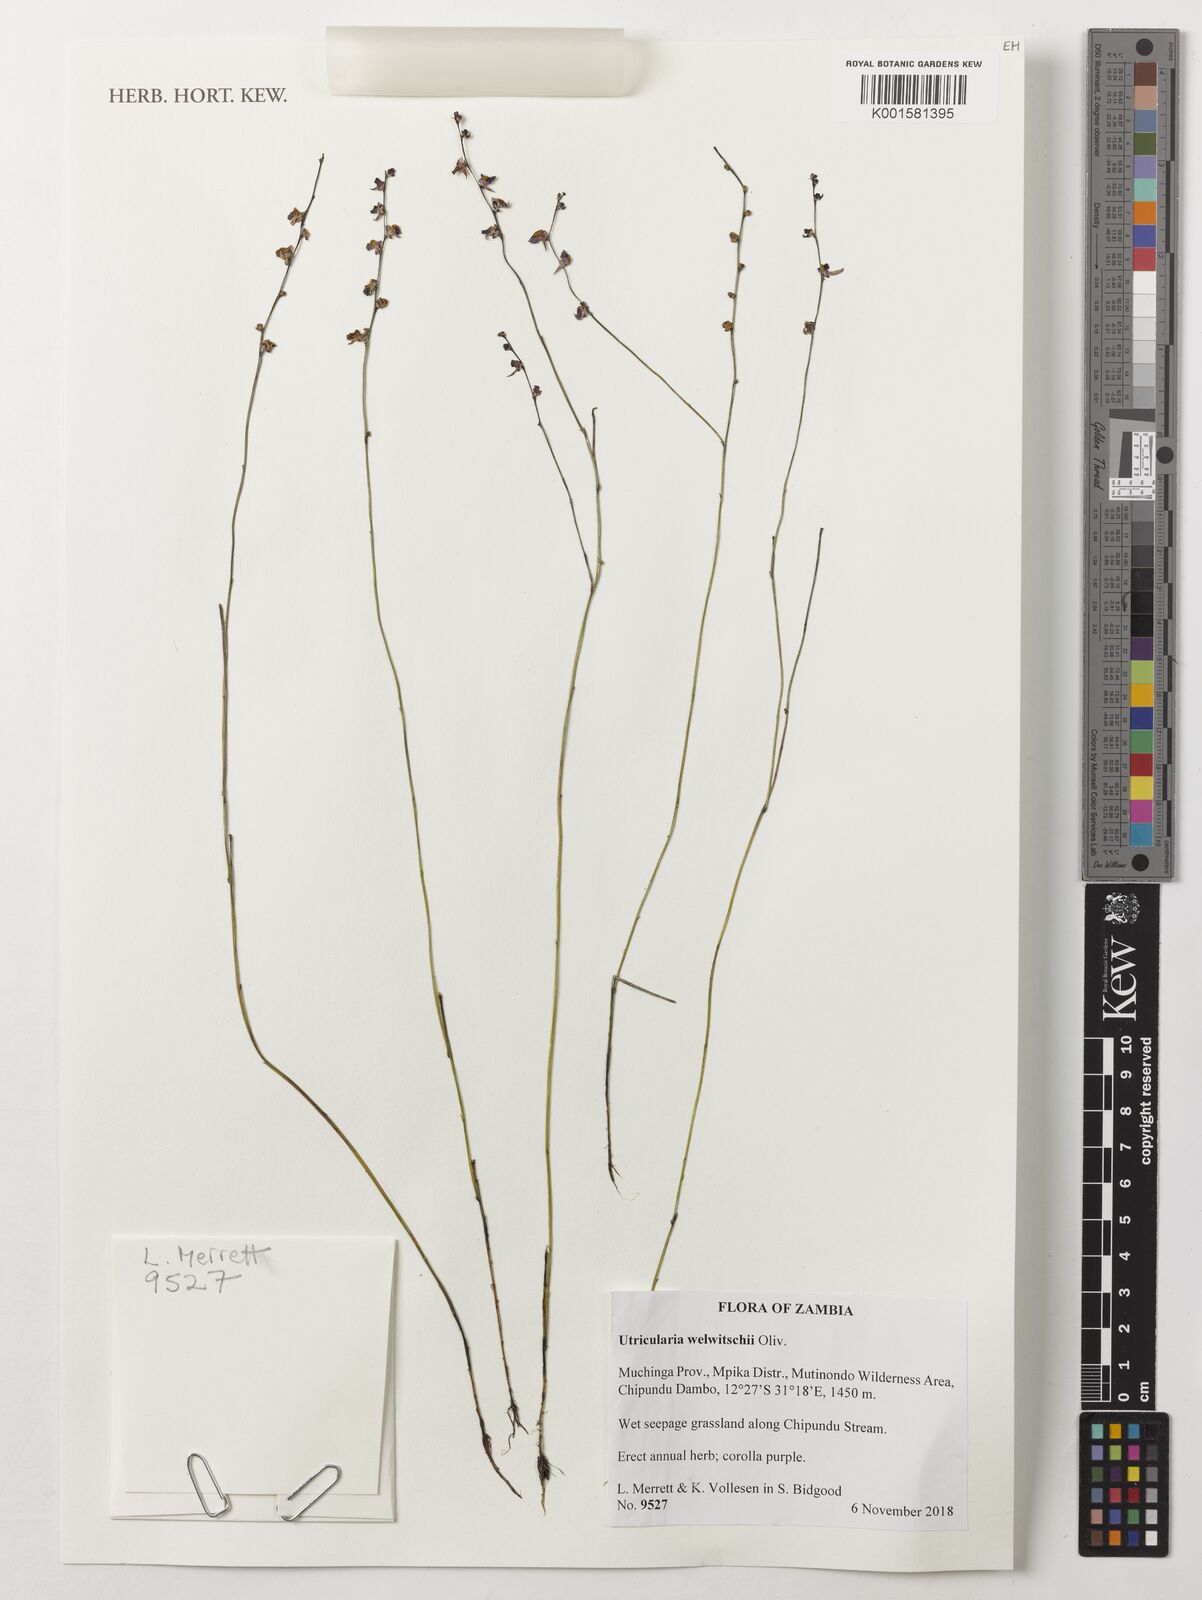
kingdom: Plantae
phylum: Tracheophyta
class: Magnoliopsida
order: Lamiales
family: Lentibulariaceae
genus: Utricularia
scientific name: Utricularia welwitschii
